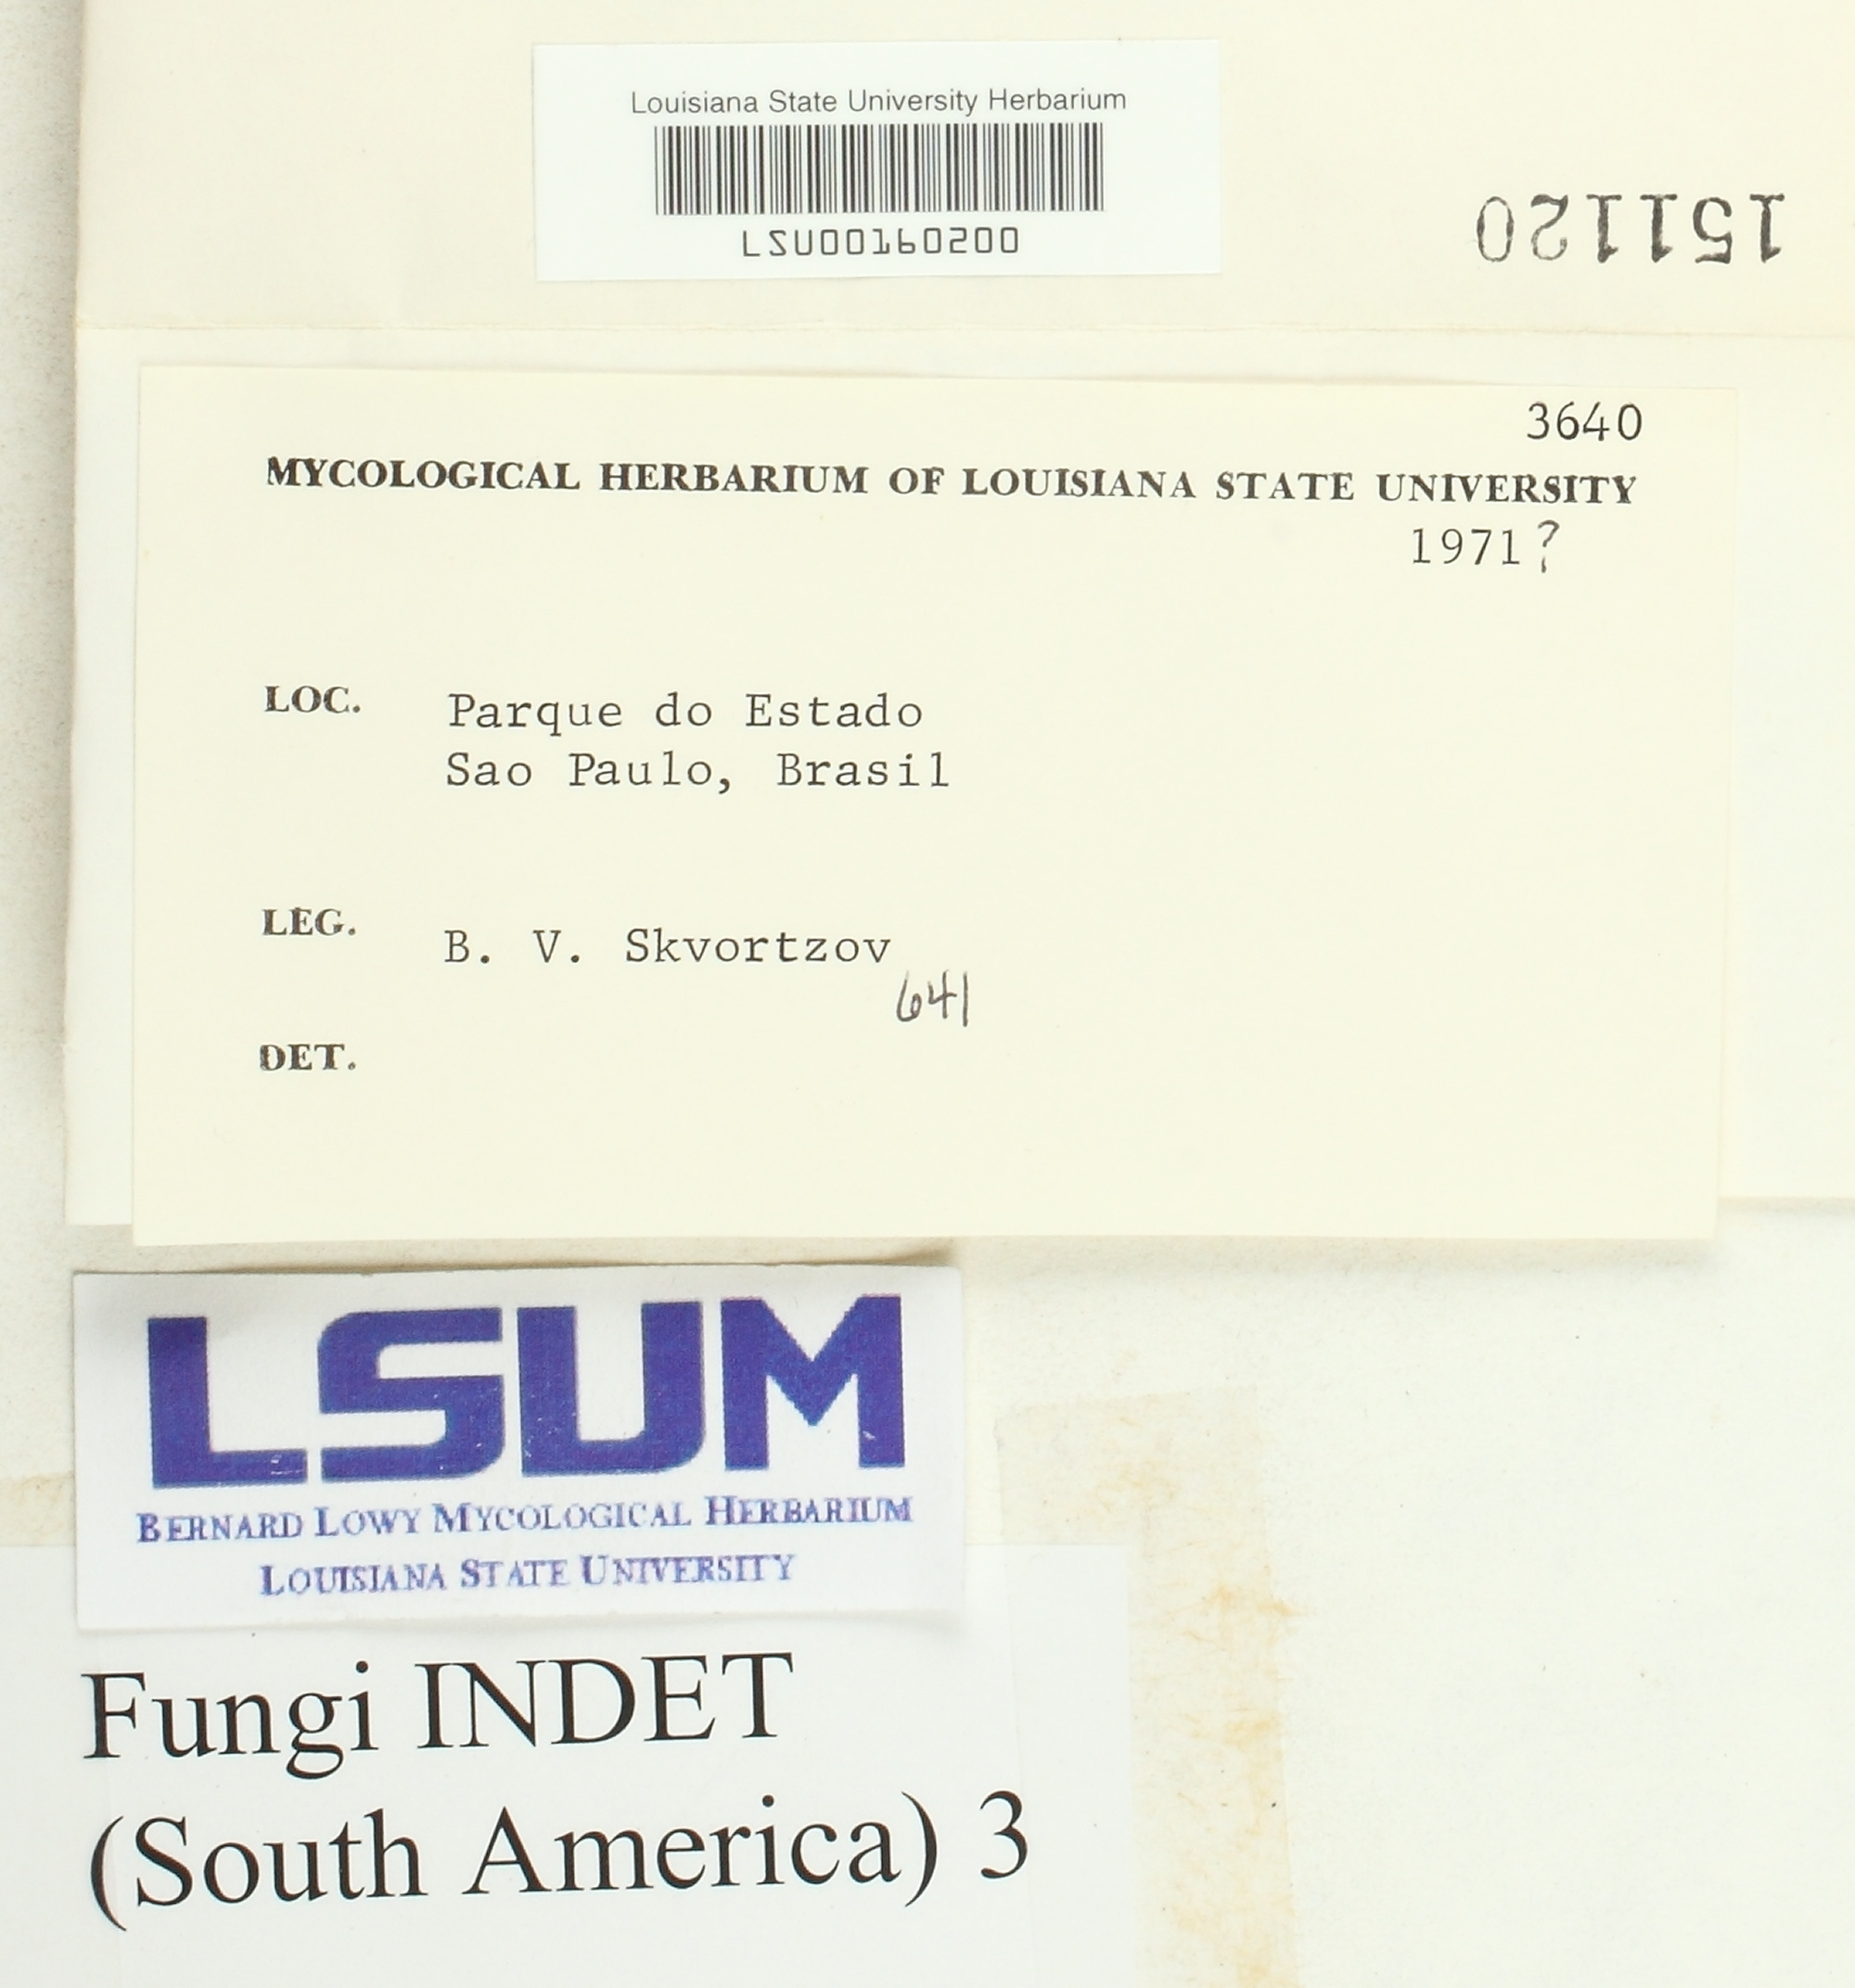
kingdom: Fungi
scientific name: Fungi
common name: Fungi
